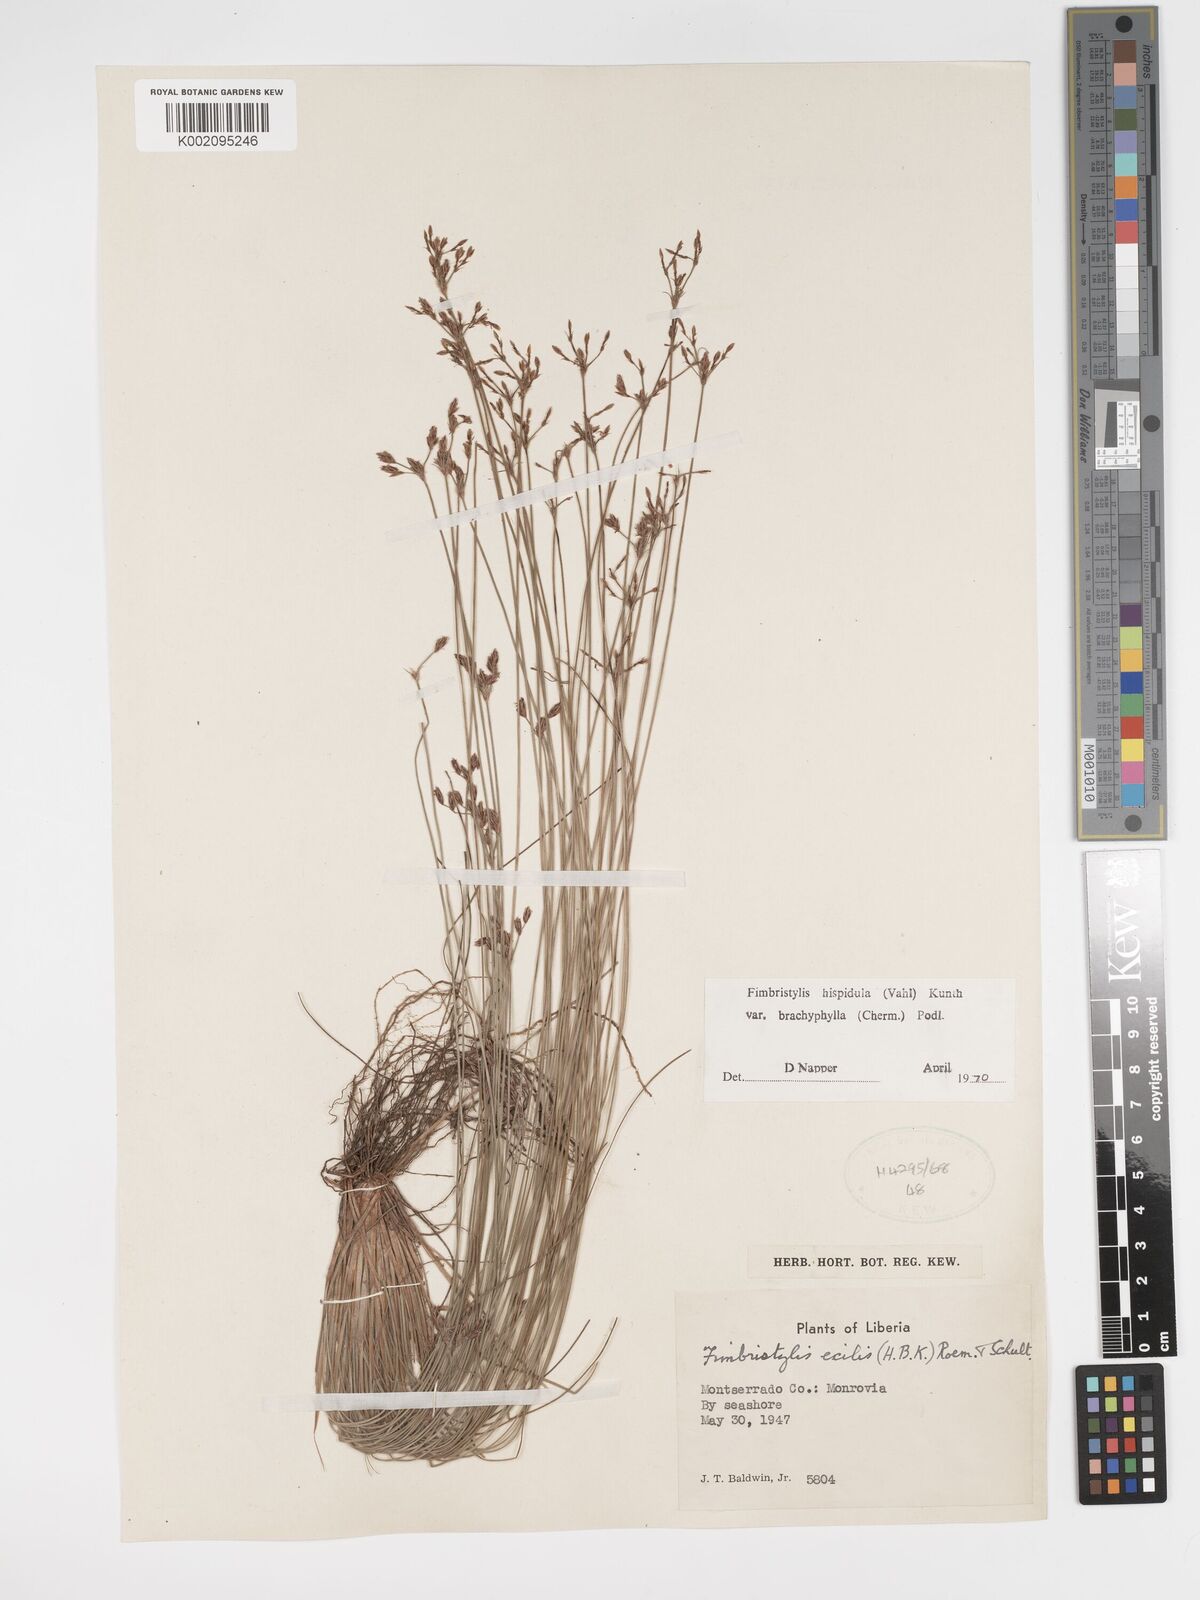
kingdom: Plantae
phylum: Tracheophyta
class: Liliopsida
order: Poales
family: Cyperaceae
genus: Bulbostylis
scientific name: Bulbostylis hispidula
